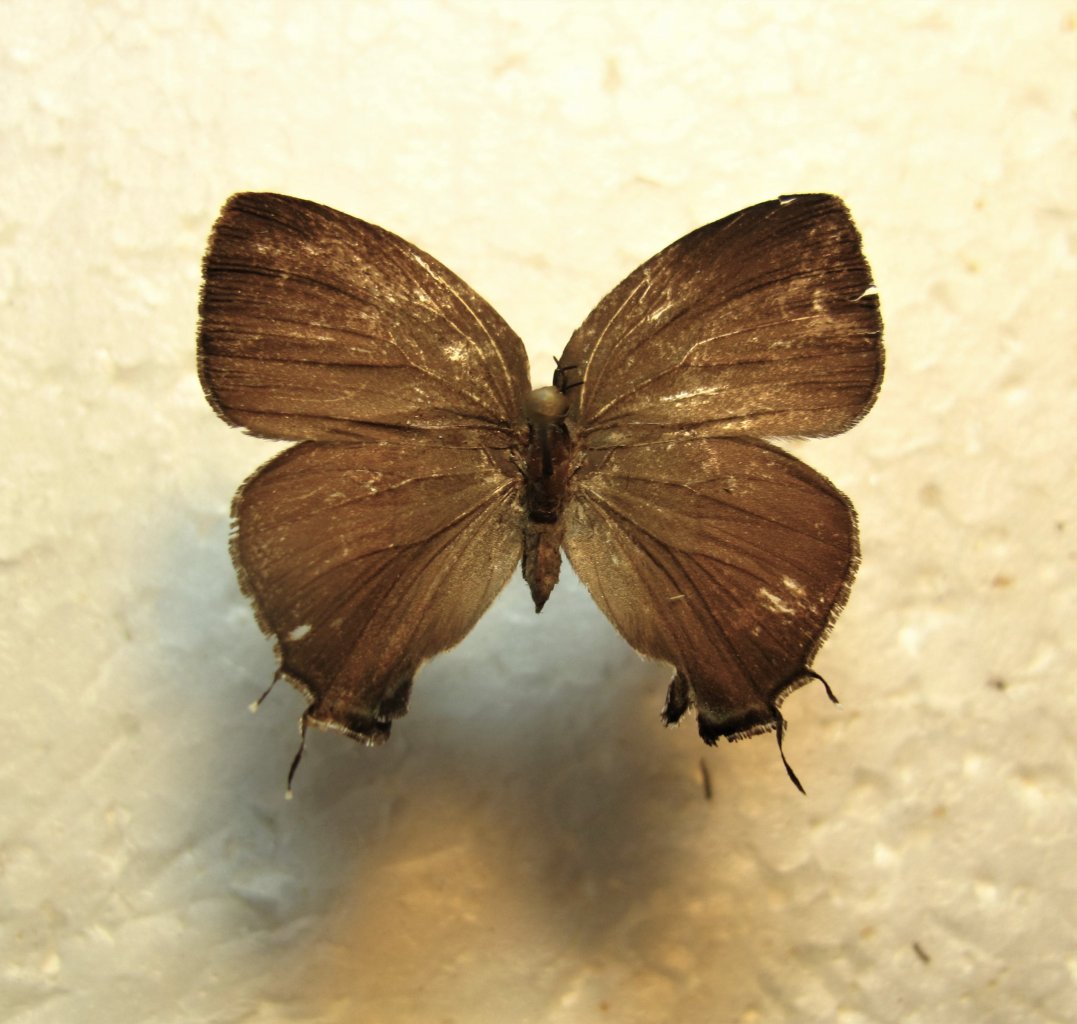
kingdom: Animalia
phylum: Arthropoda
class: Insecta
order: Lepidoptera
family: Lycaenidae
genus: Thecla
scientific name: Thecla hemon
